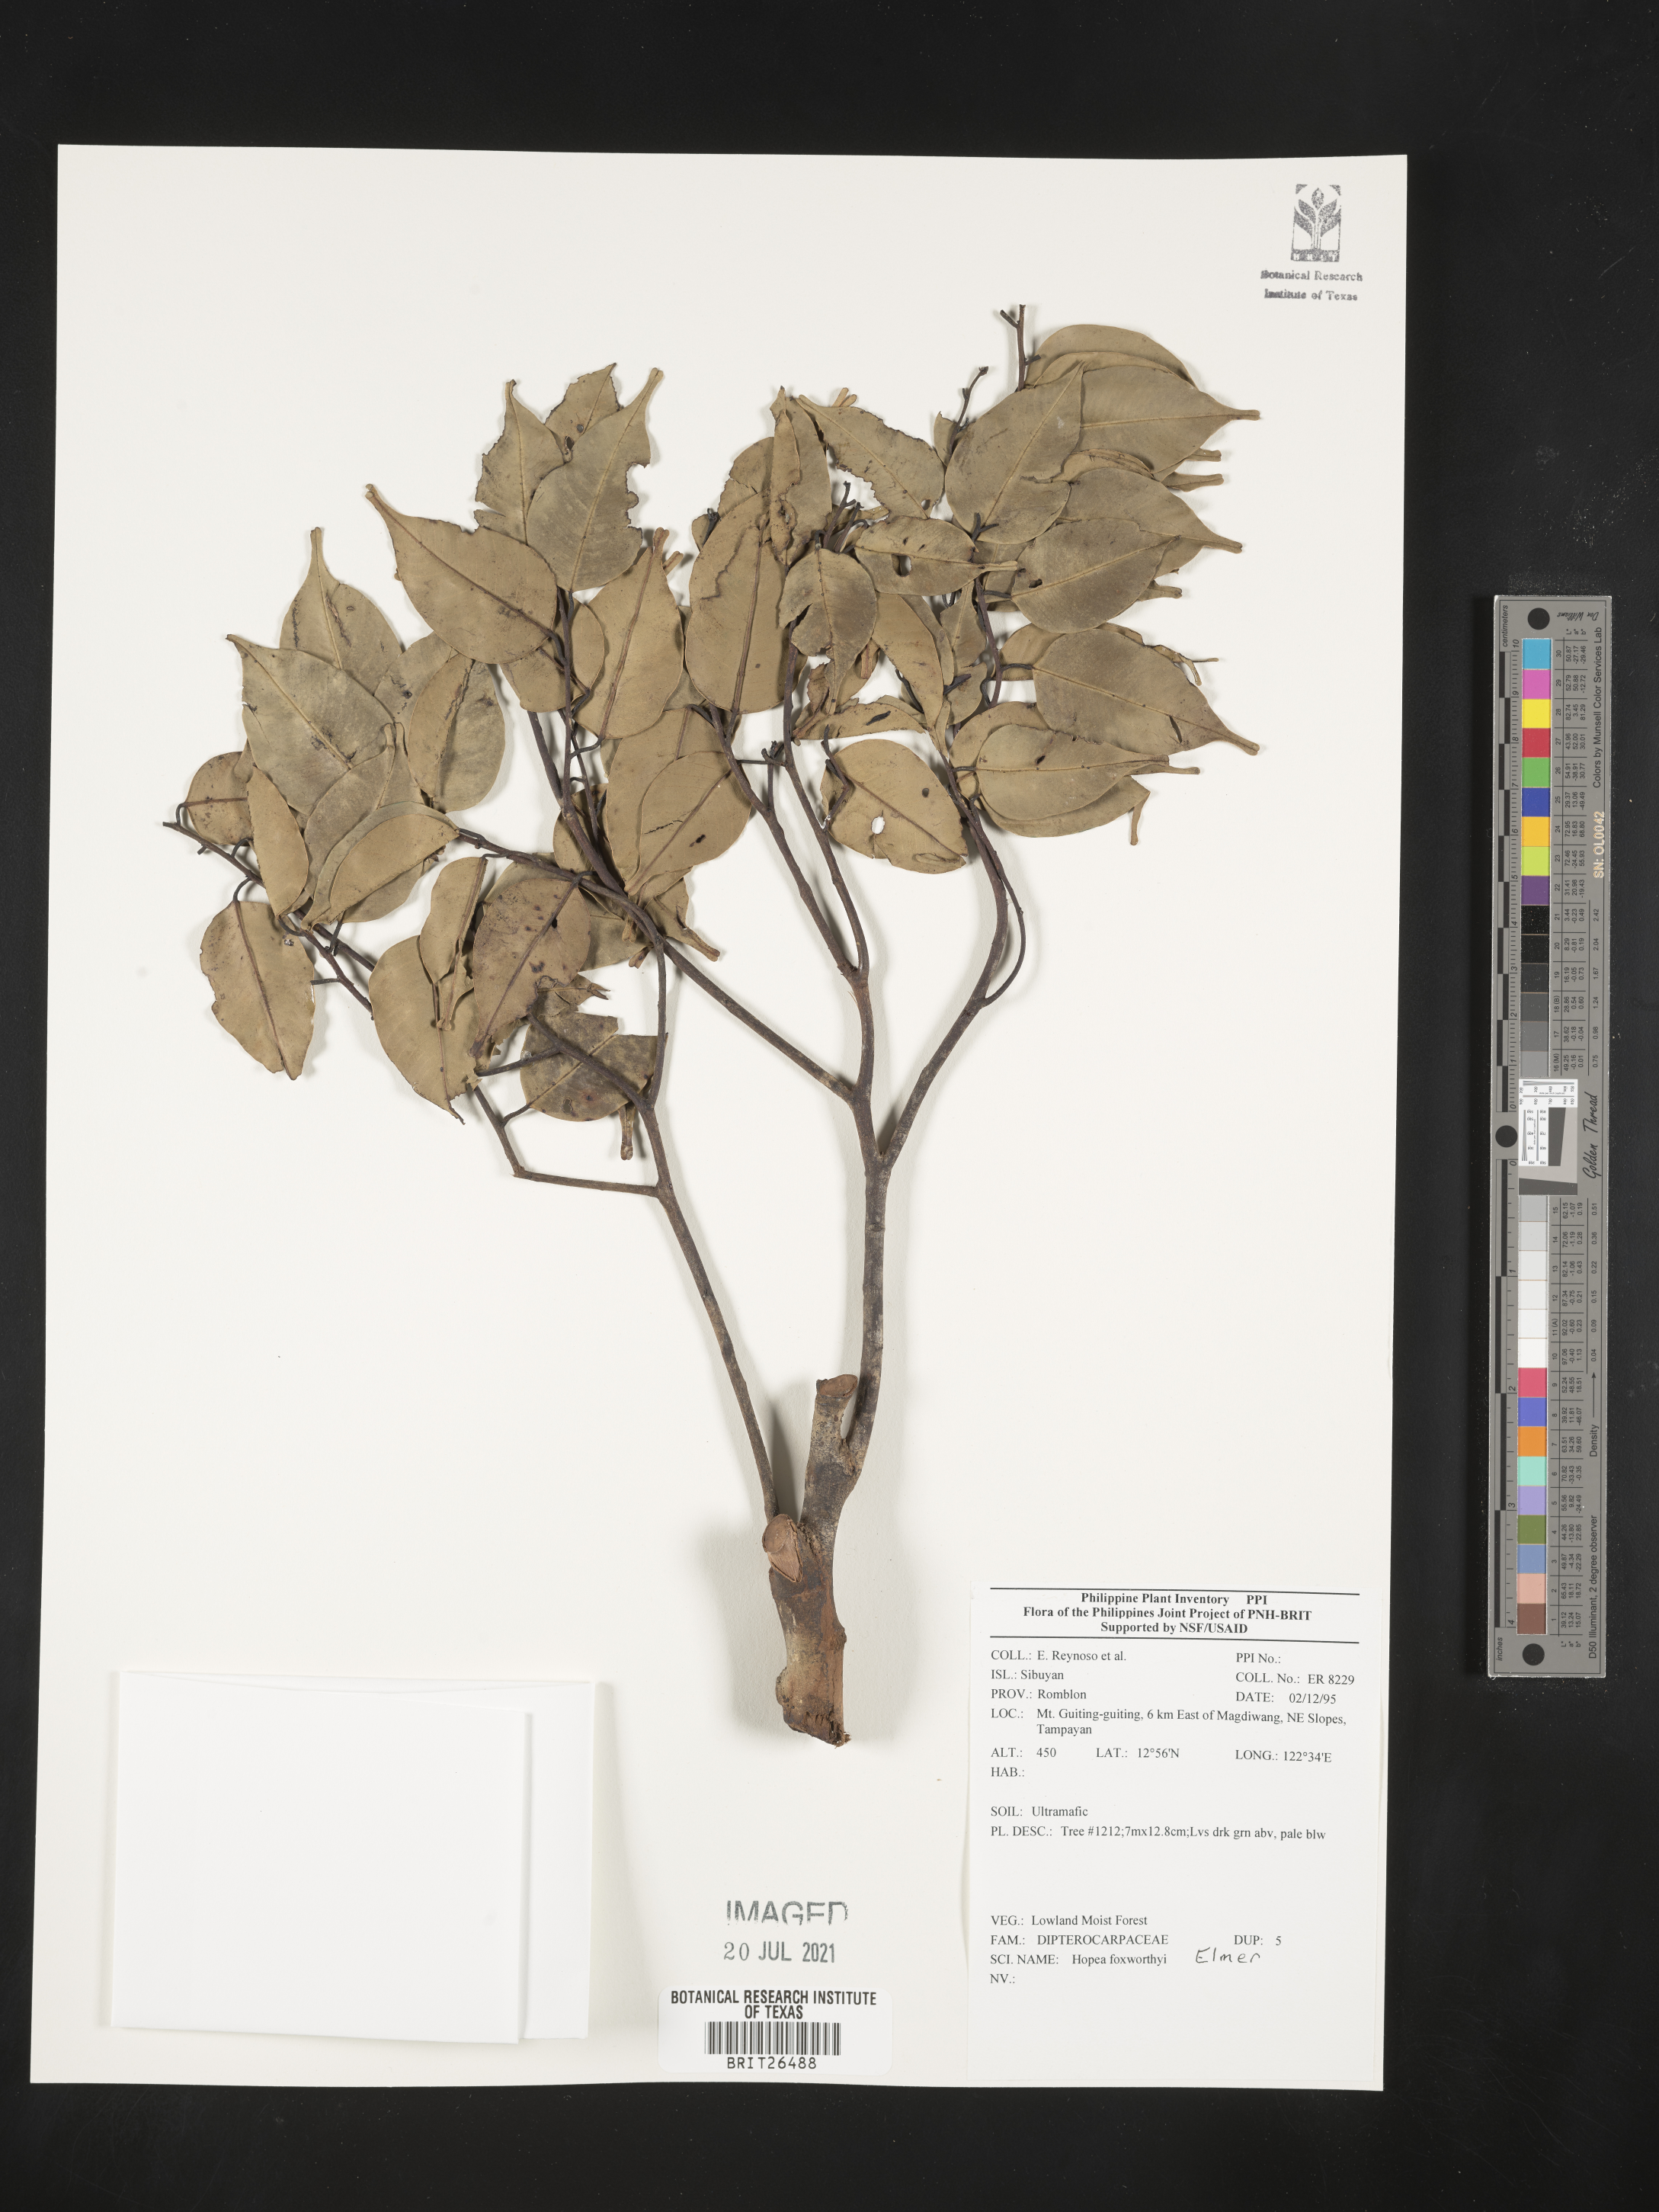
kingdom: Plantae
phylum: Tracheophyta
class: Magnoliopsida
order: Malvales
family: Dipterocarpaceae
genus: Hopea
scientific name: Hopea foxworthyi
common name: Dalingdingan
